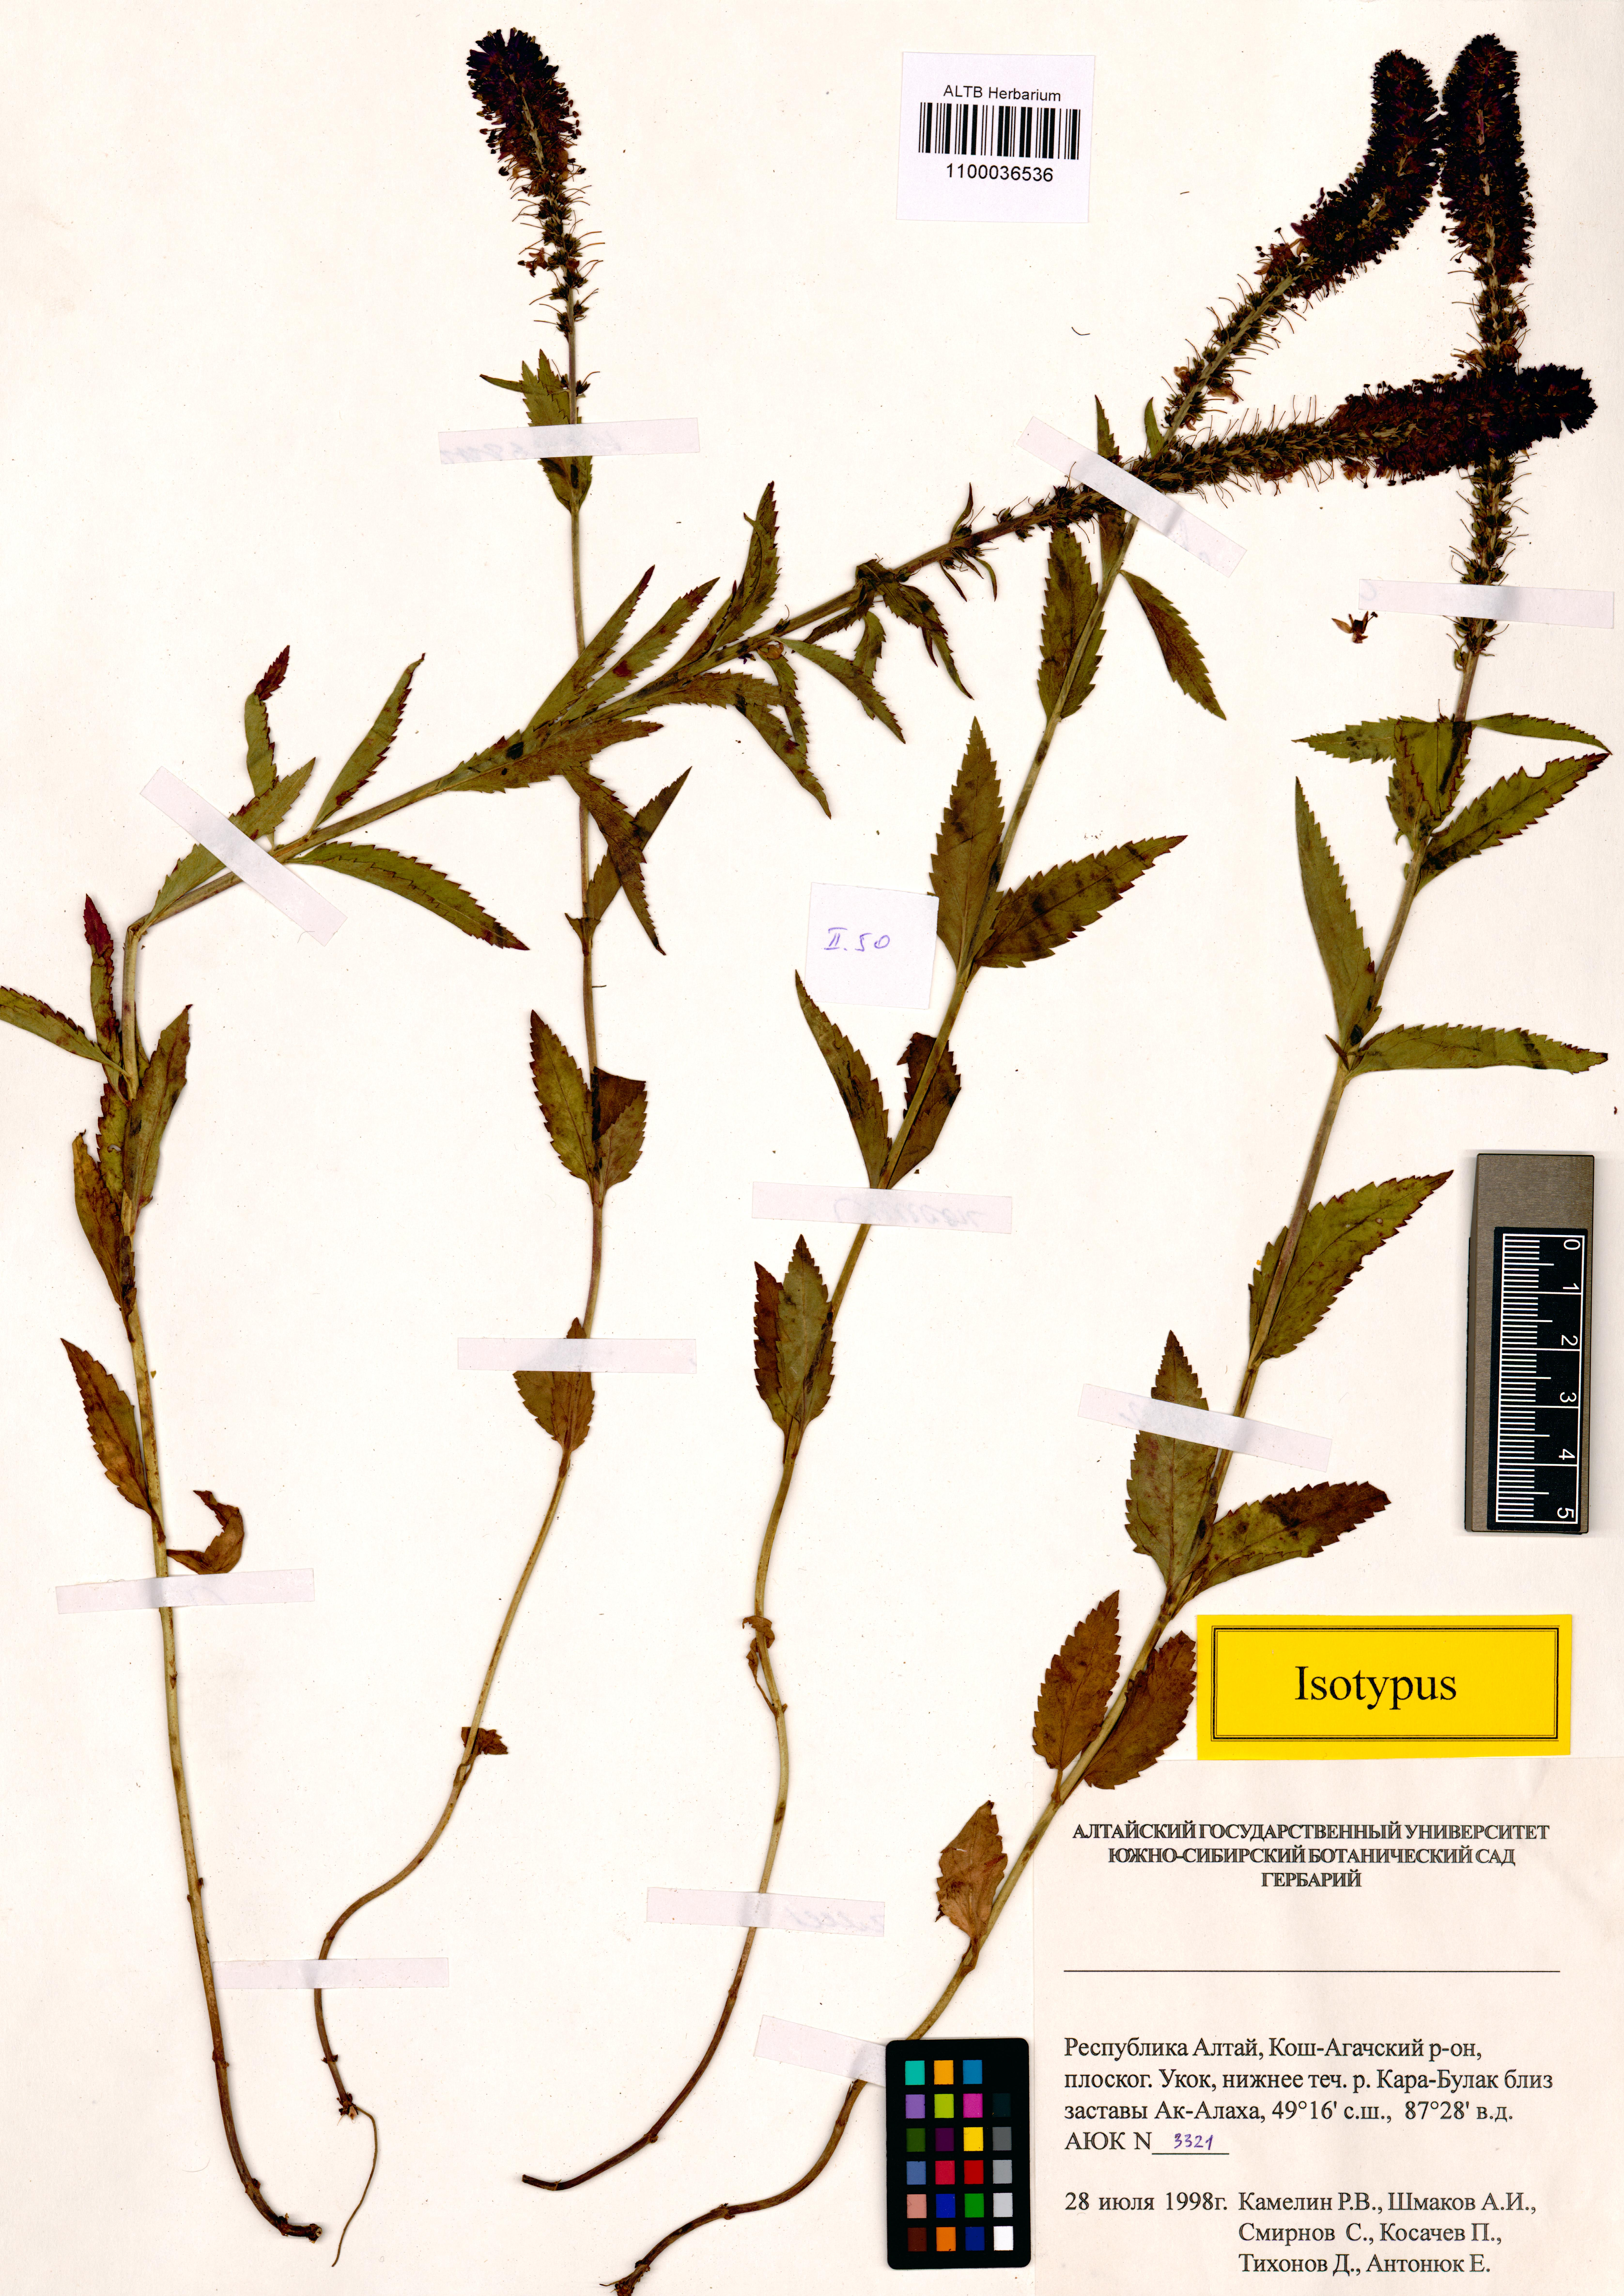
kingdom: Plantae
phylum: Tracheophyta
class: Magnoliopsida
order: Lamiales
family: Plantaginaceae
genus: Veronica
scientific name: Veronica schmakovii
